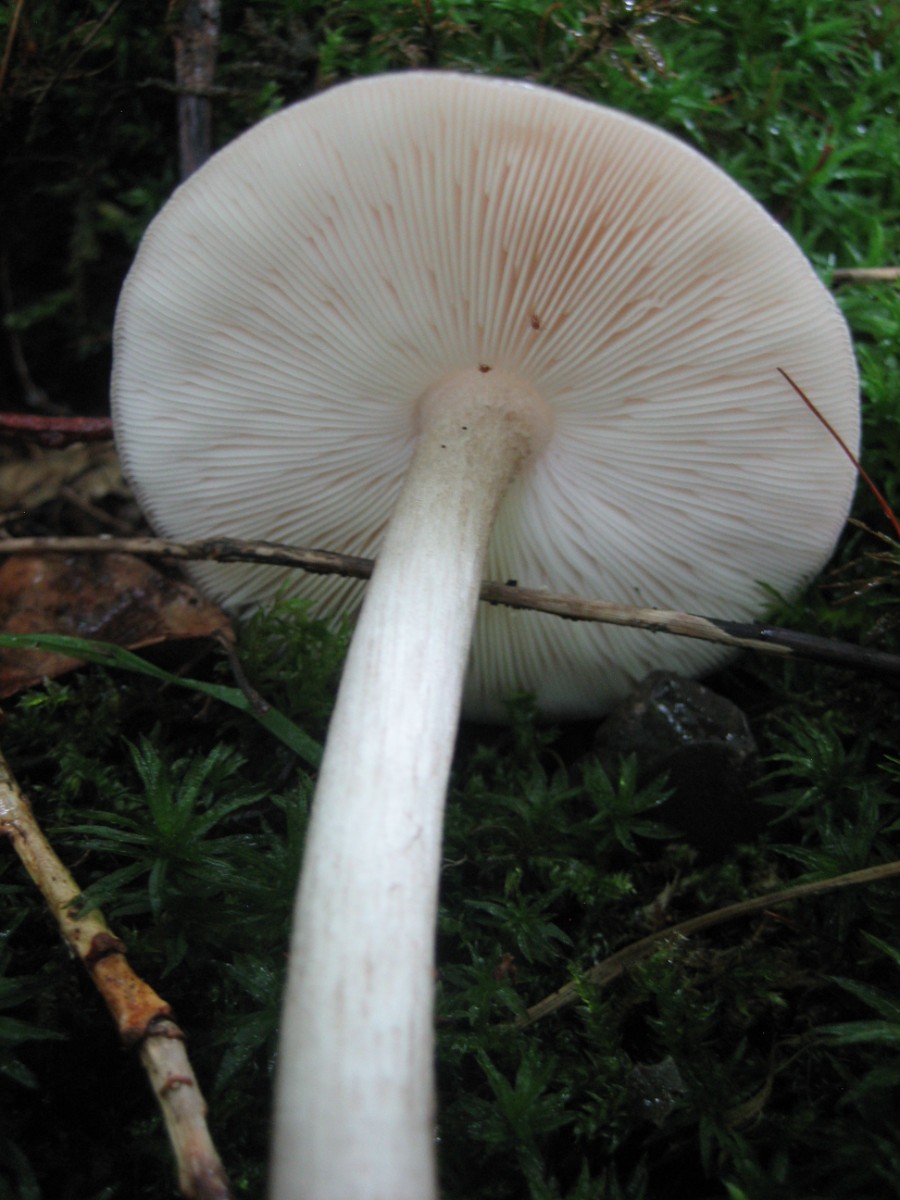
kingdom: Fungi
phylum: Basidiomycota
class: Agaricomycetes
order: Agaricales
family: Pluteaceae
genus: Pluteus
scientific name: Pluteus cervinus
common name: sodfarvet skærmhat
